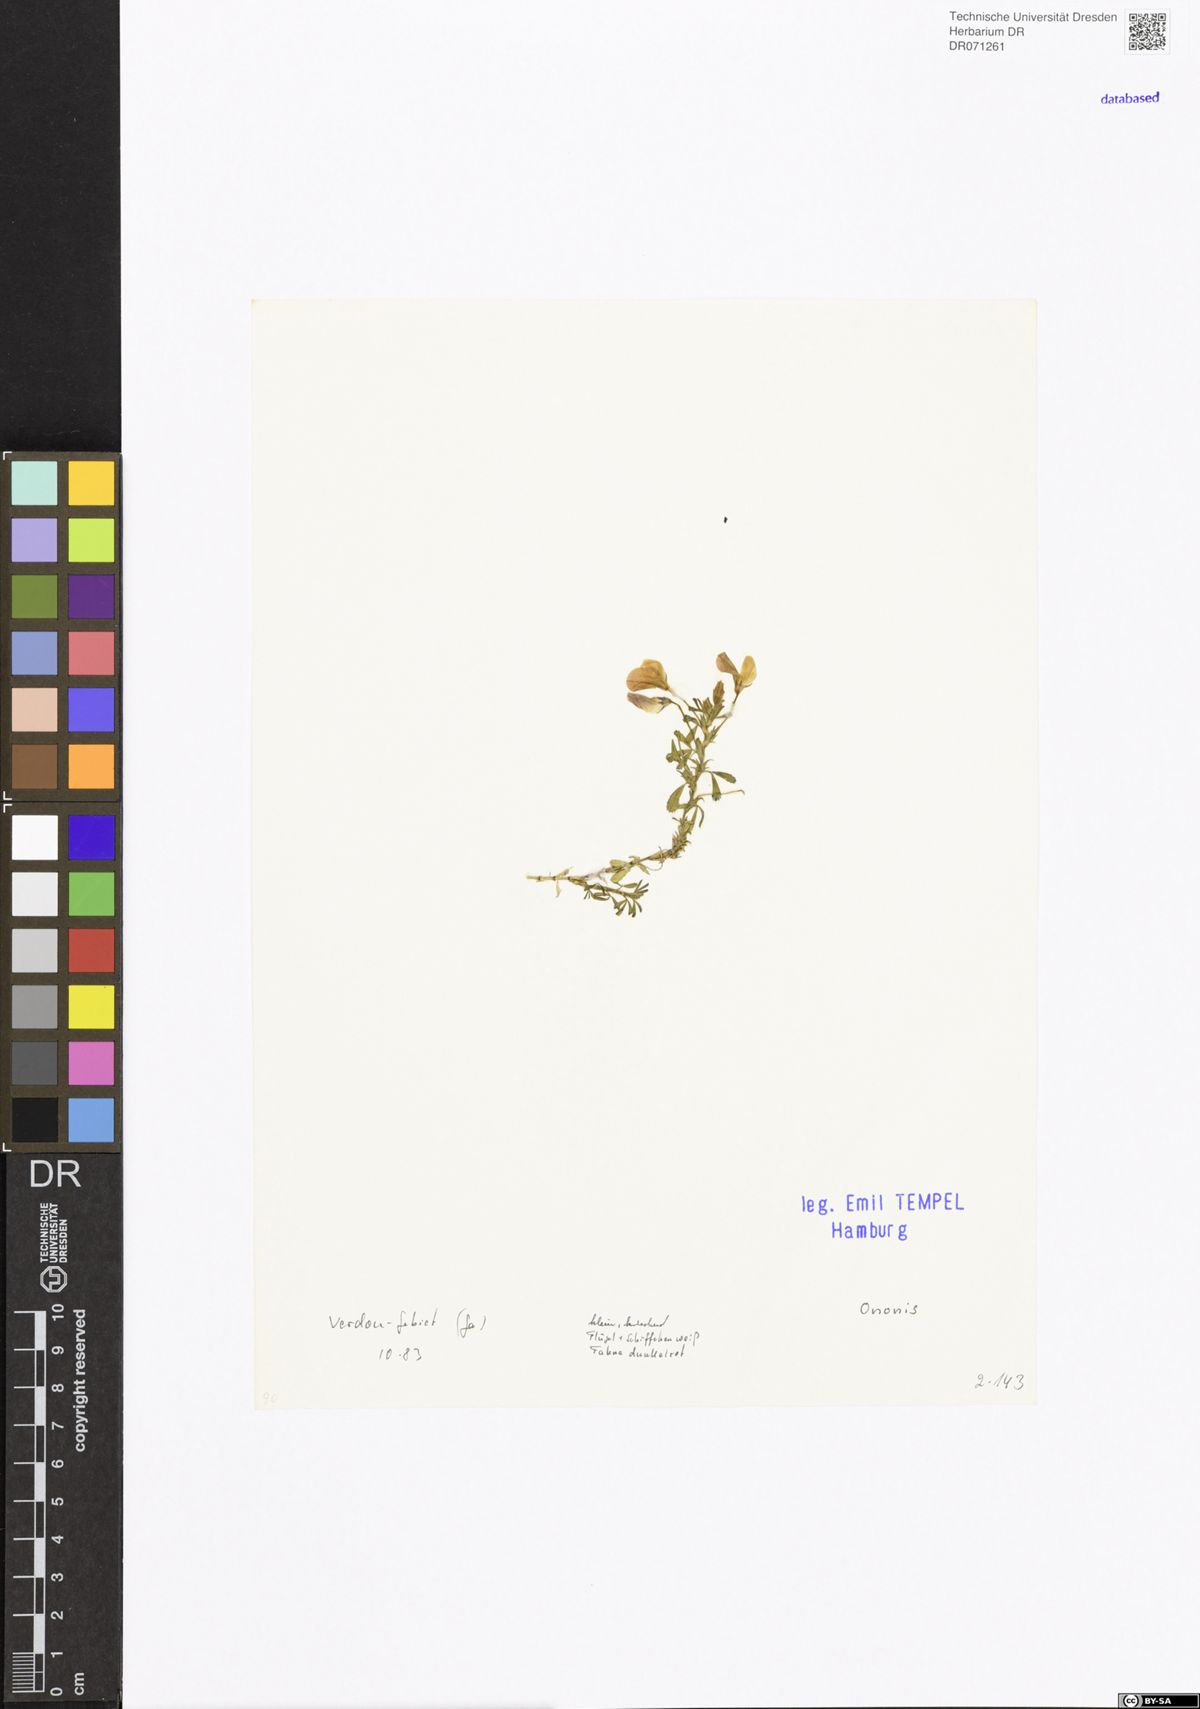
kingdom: Plantae
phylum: Tracheophyta
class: Magnoliopsida
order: Fabales
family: Fabaceae
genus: Ononis
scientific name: Ononis
